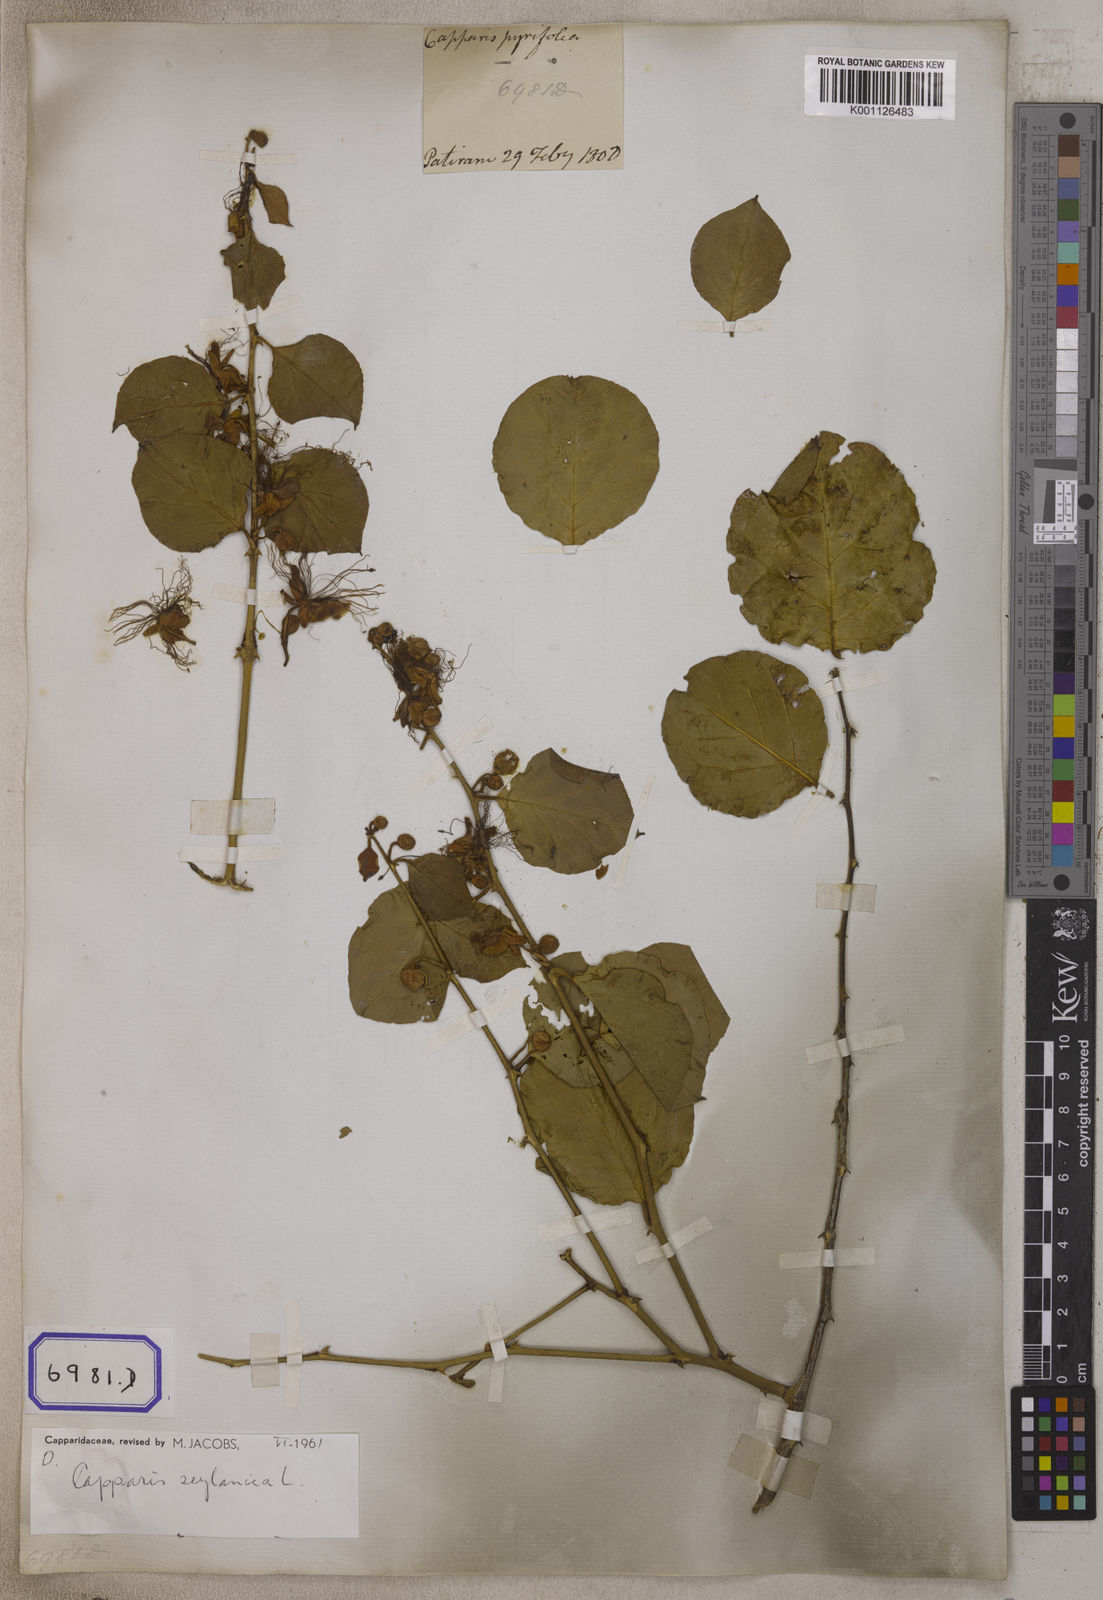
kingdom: Plantae
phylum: Tracheophyta
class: Magnoliopsida
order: Brassicales
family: Capparaceae
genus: Capparis
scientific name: Capparis zeylanica
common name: Ceylon caper
